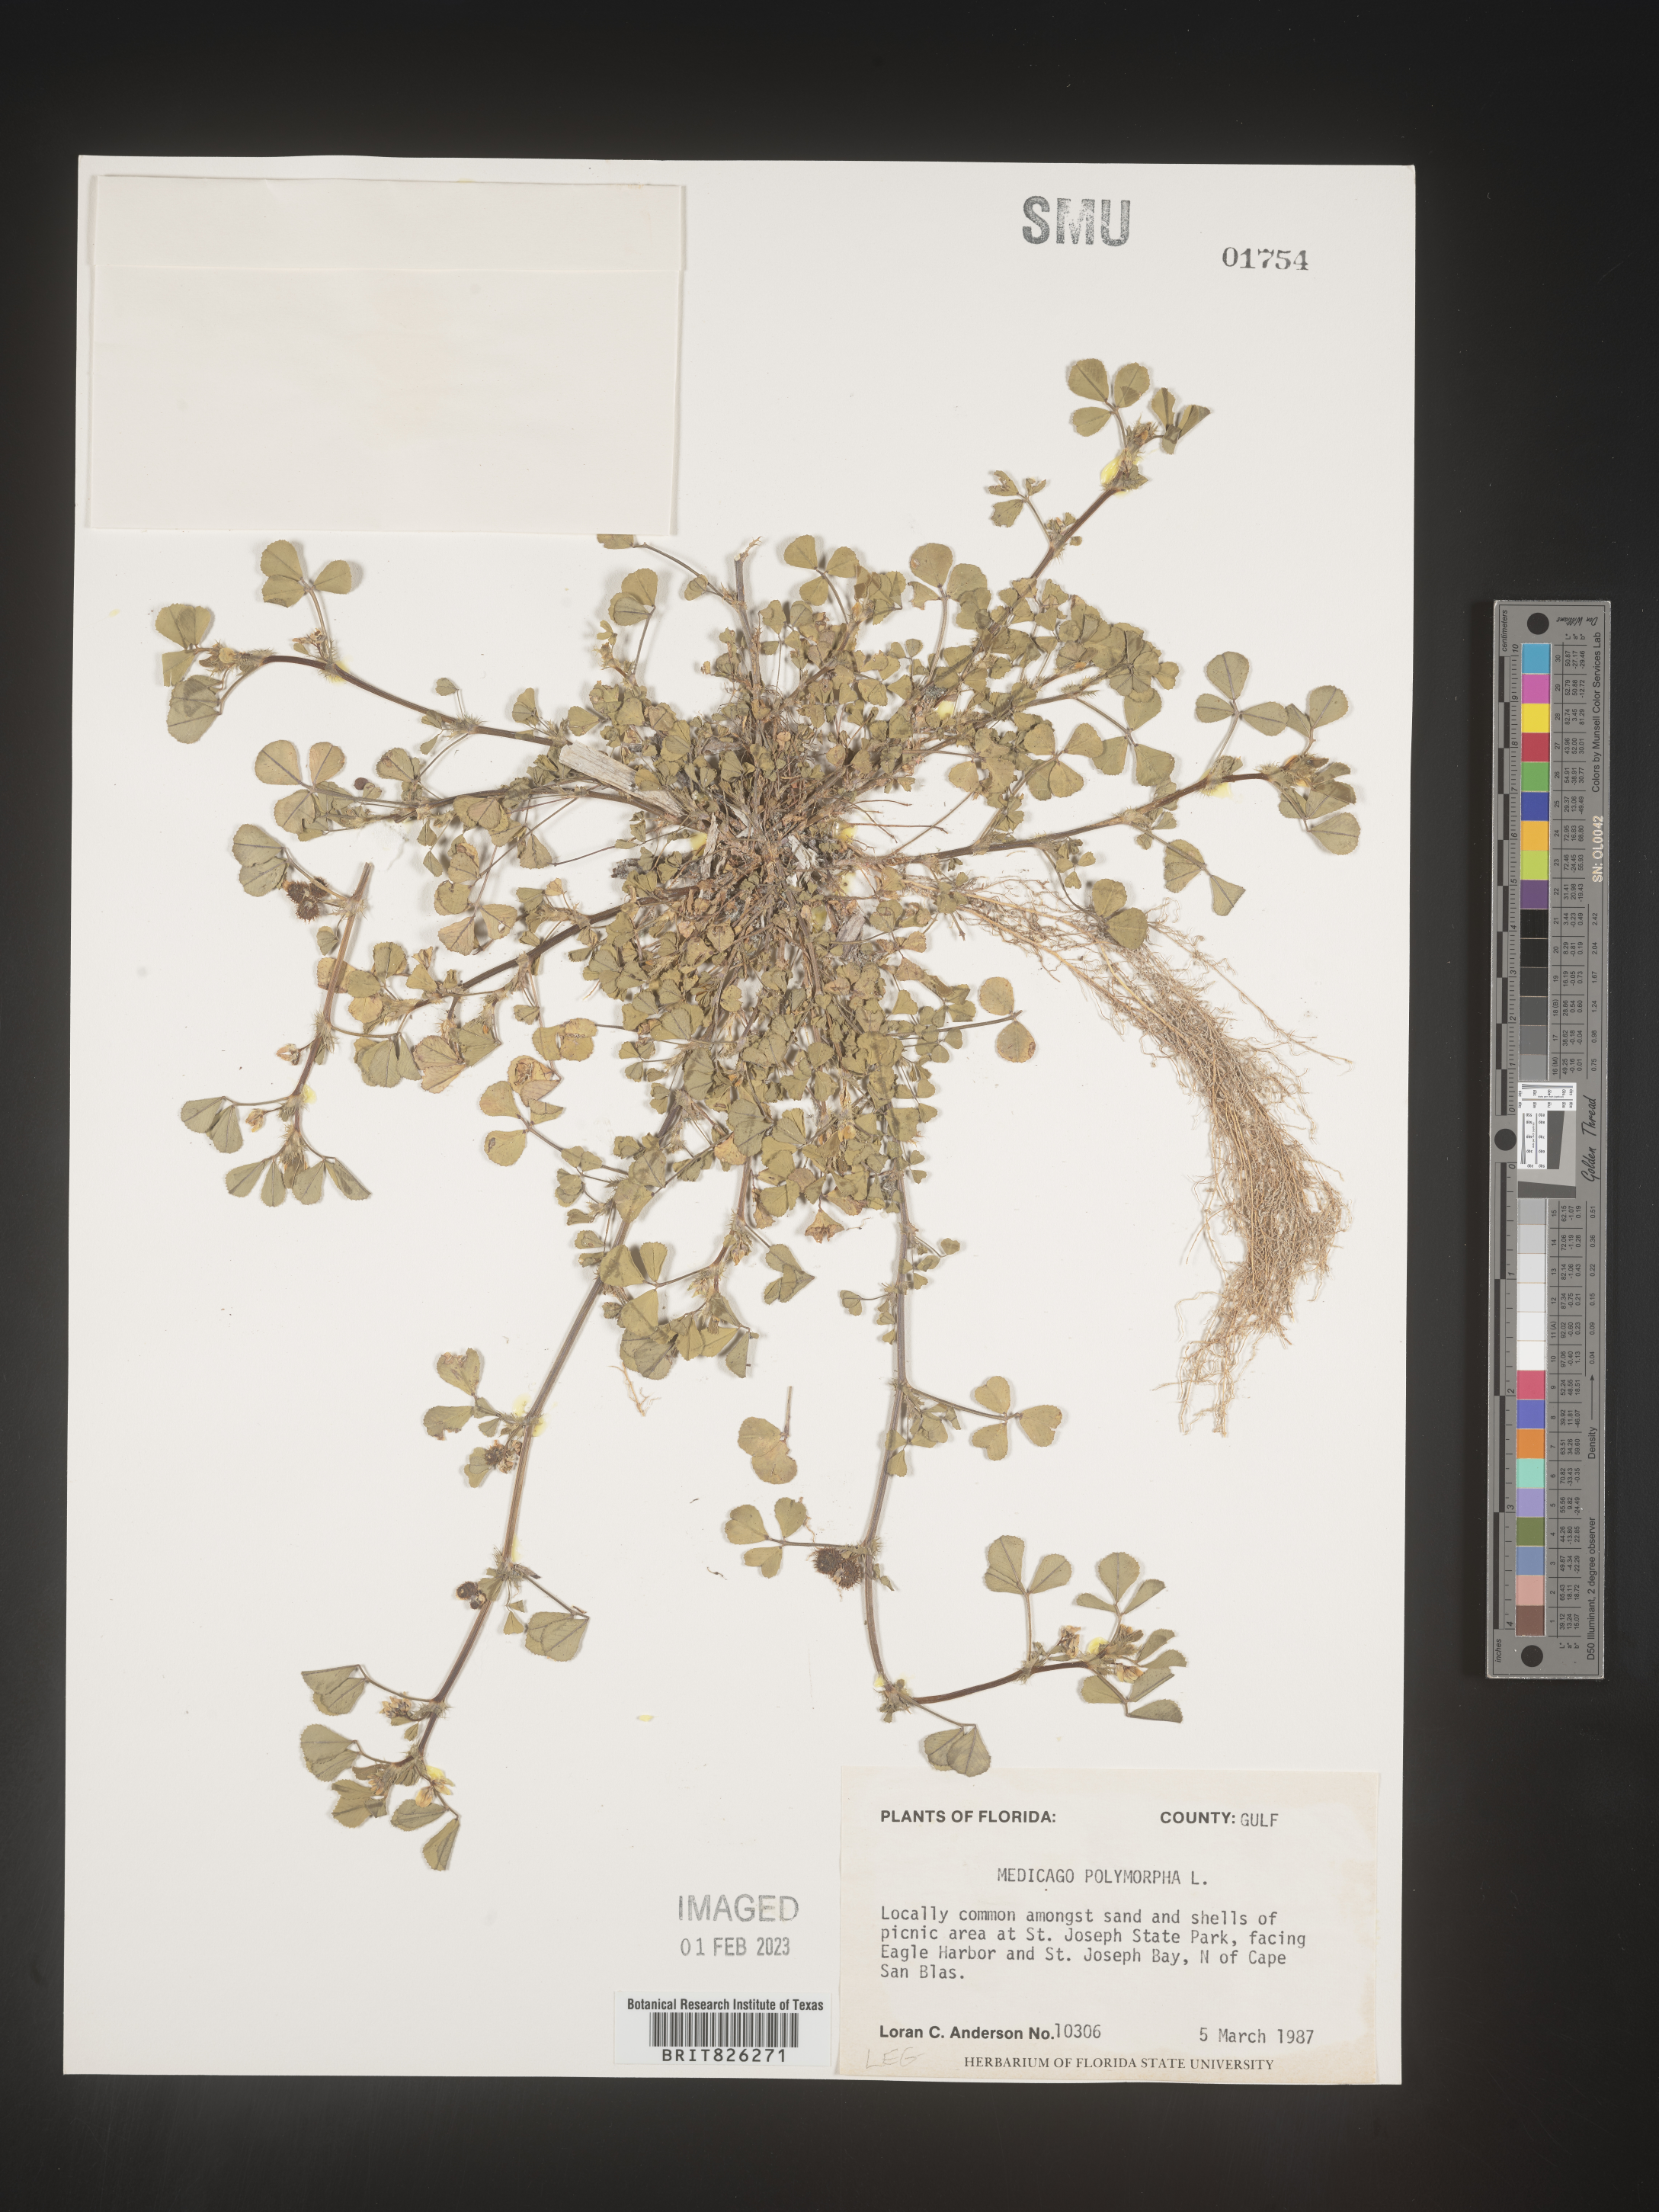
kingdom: Plantae
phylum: Tracheophyta
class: Magnoliopsida
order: Fabales
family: Fabaceae
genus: Medicago
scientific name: Medicago polymorpha
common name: Burclover
